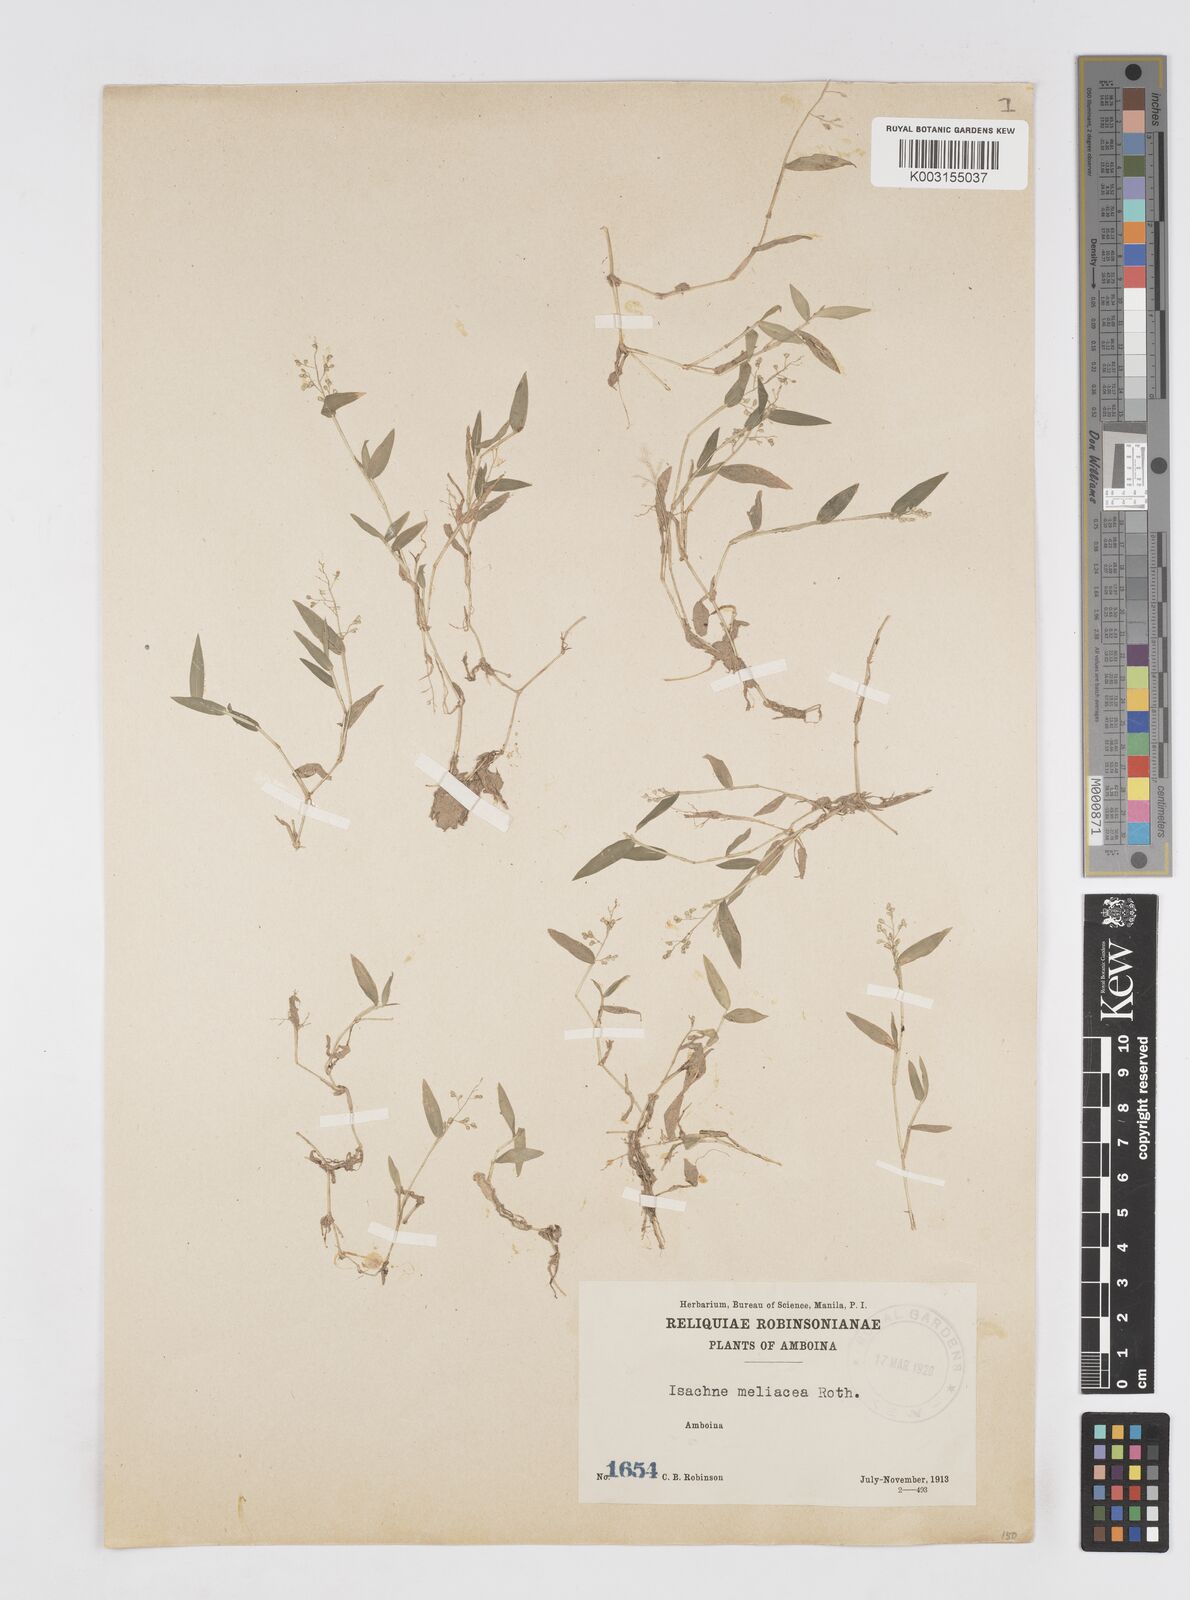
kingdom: Plantae
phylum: Tracheophyta
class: Liliopsida
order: Poales
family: Poaceae
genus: Isachne
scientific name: Isachne globosa
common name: Swamp millet
